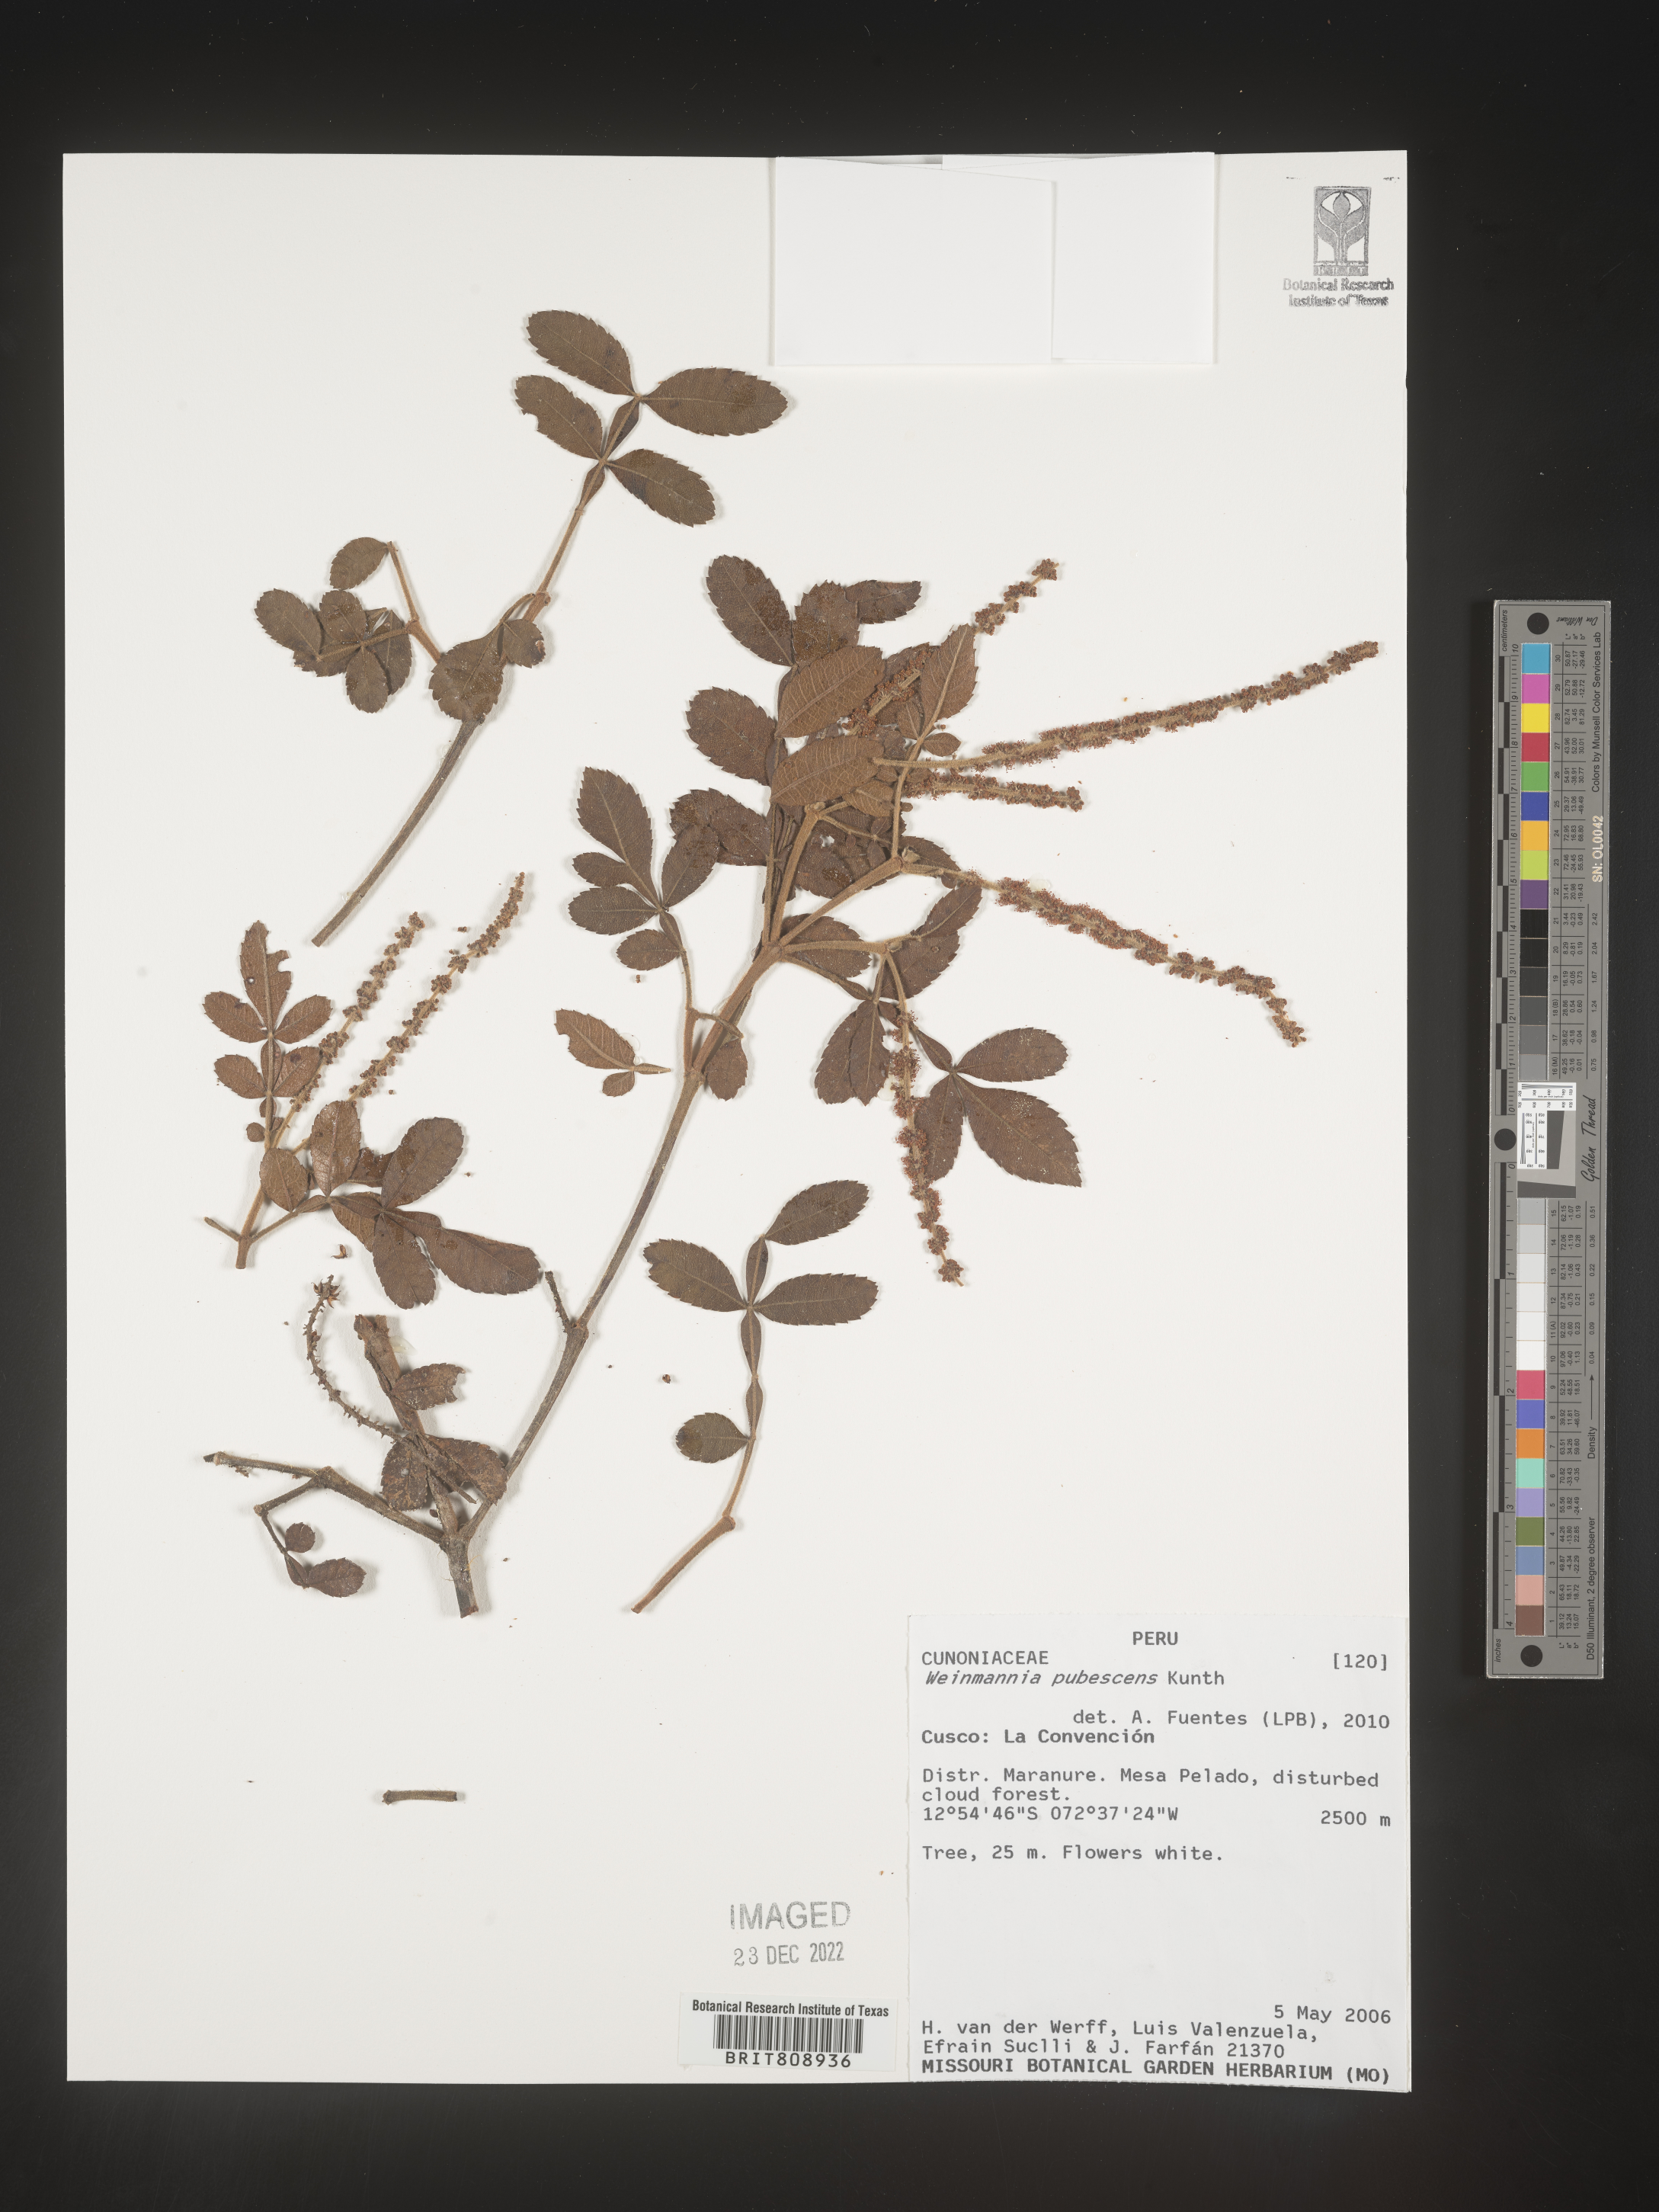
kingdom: Plantae
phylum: Tracheophyta
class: Magnoliopsida
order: Oxalidales
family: Cunoniaceae
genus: Weinmannia
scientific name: Weinmannia
